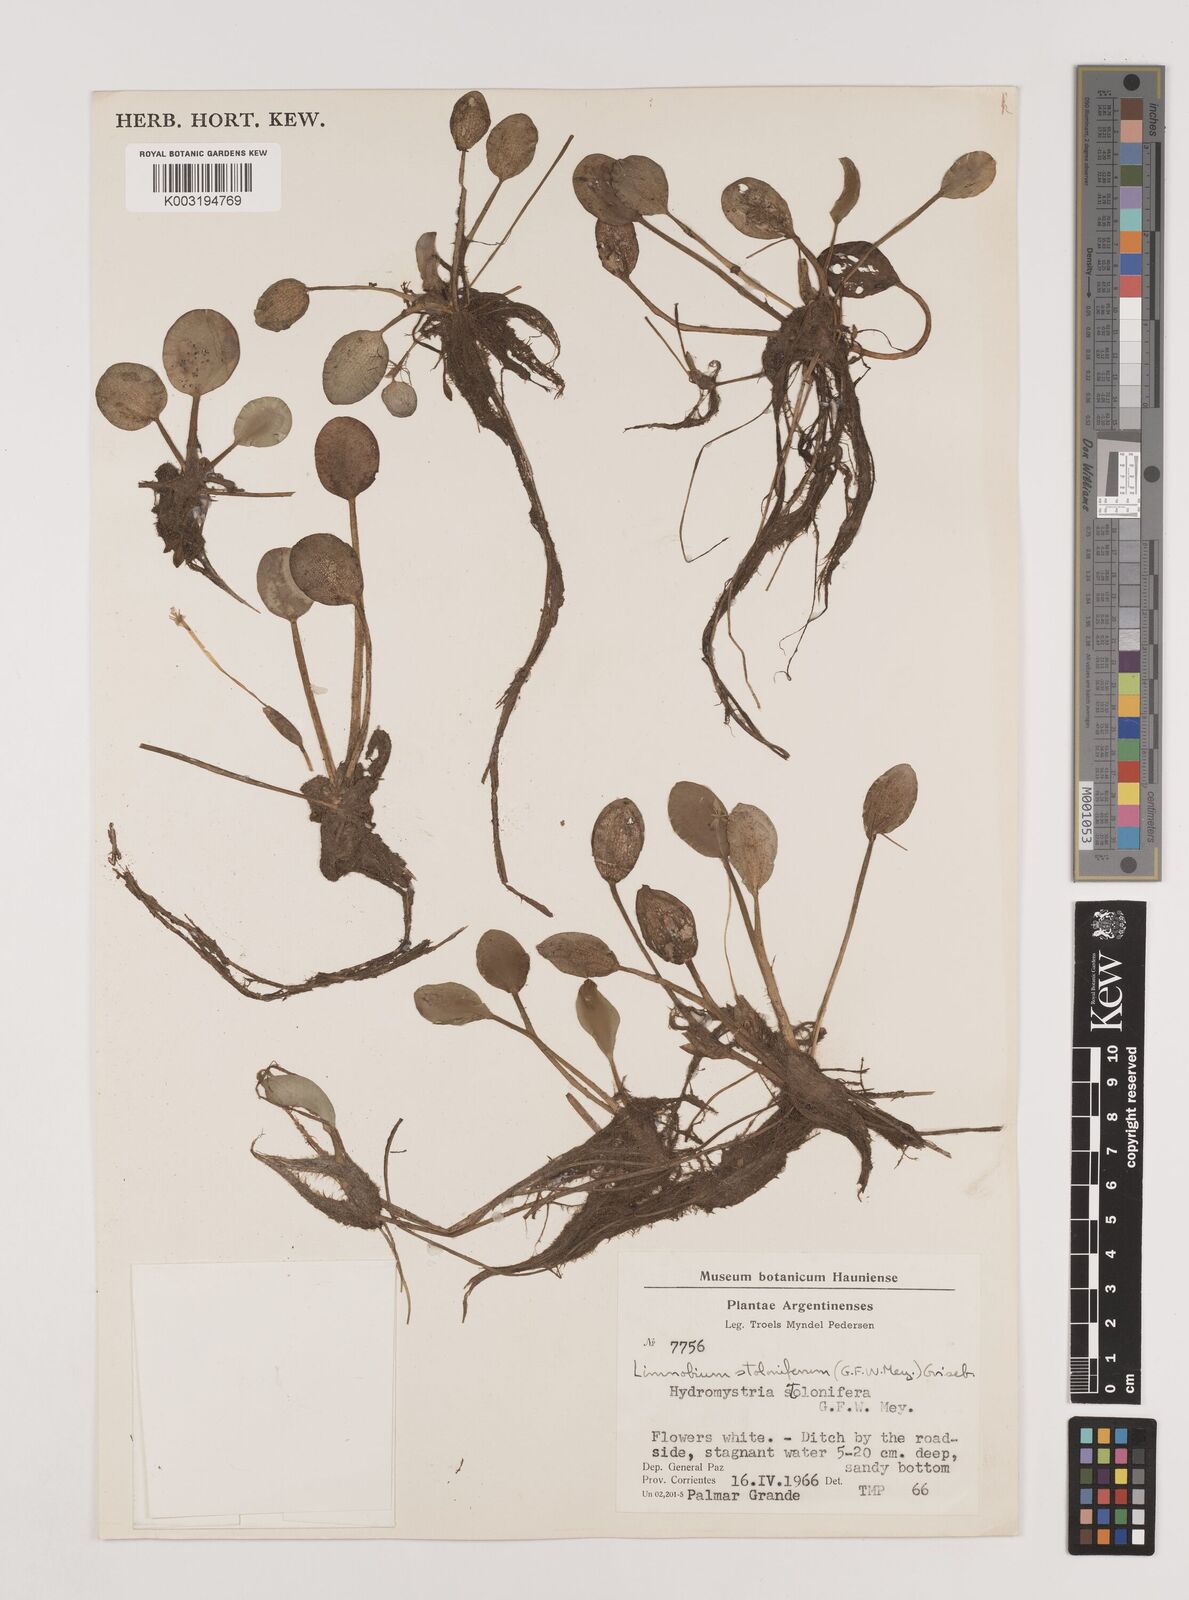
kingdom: Plantae
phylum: Tracheophyta
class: Liliopsida
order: Alismatales
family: Hydrocharitaceae
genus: Hydrocharis
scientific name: Hydrocharis laevigata
